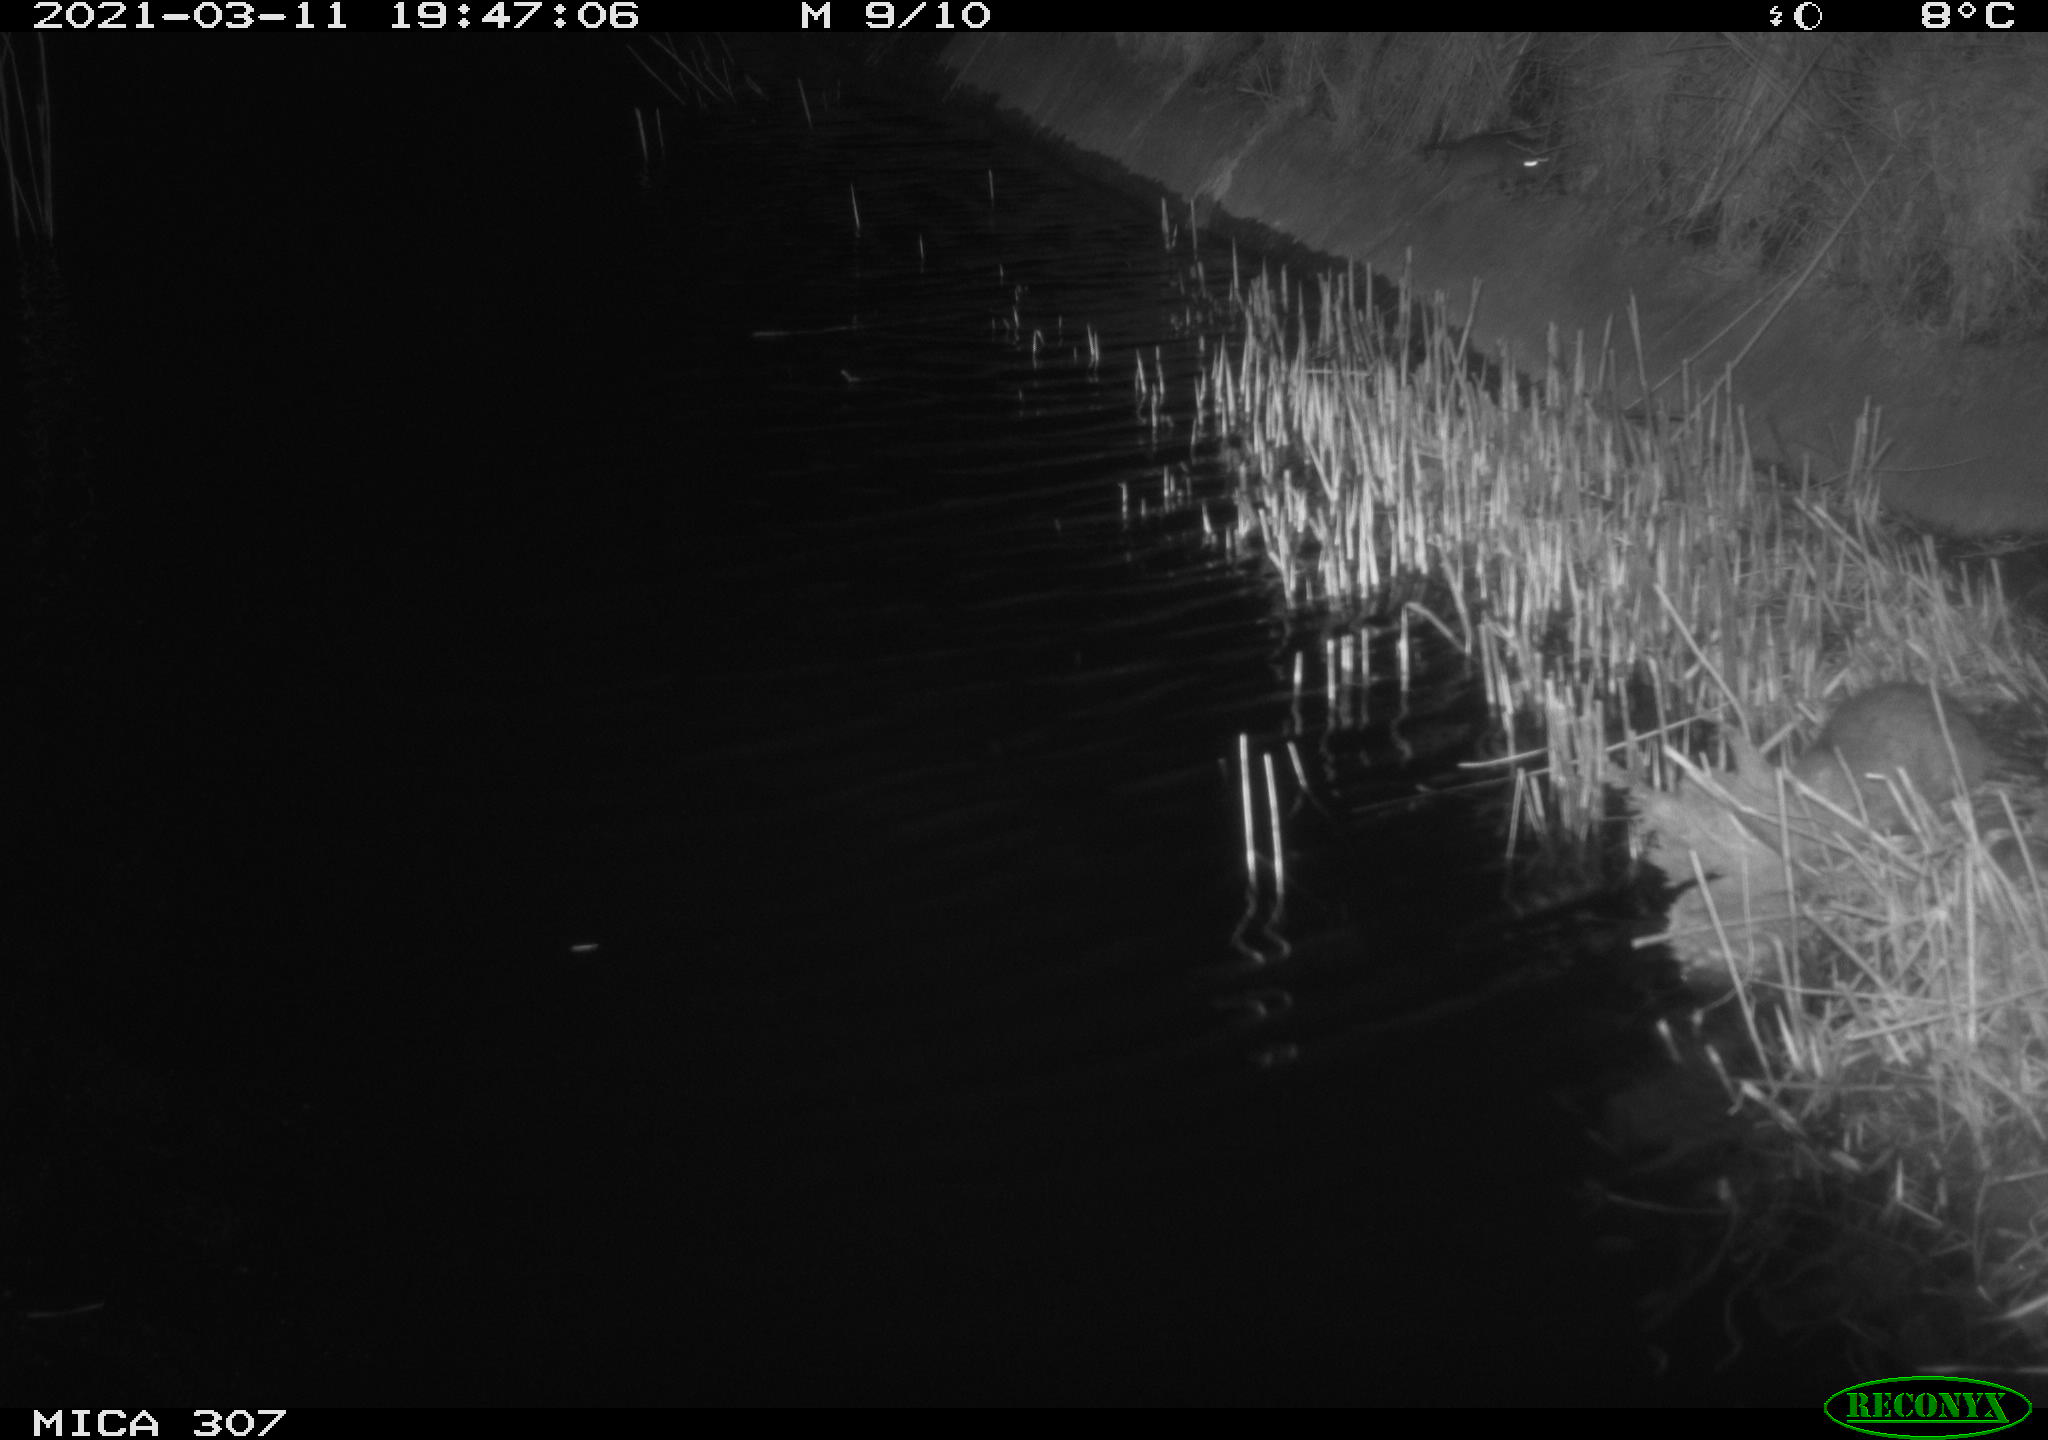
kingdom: Animalia
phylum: Chordata
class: Mammalia
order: Rodentia
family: Muridae
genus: Rattus
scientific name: Rattus norvegicus
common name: Brown rat
